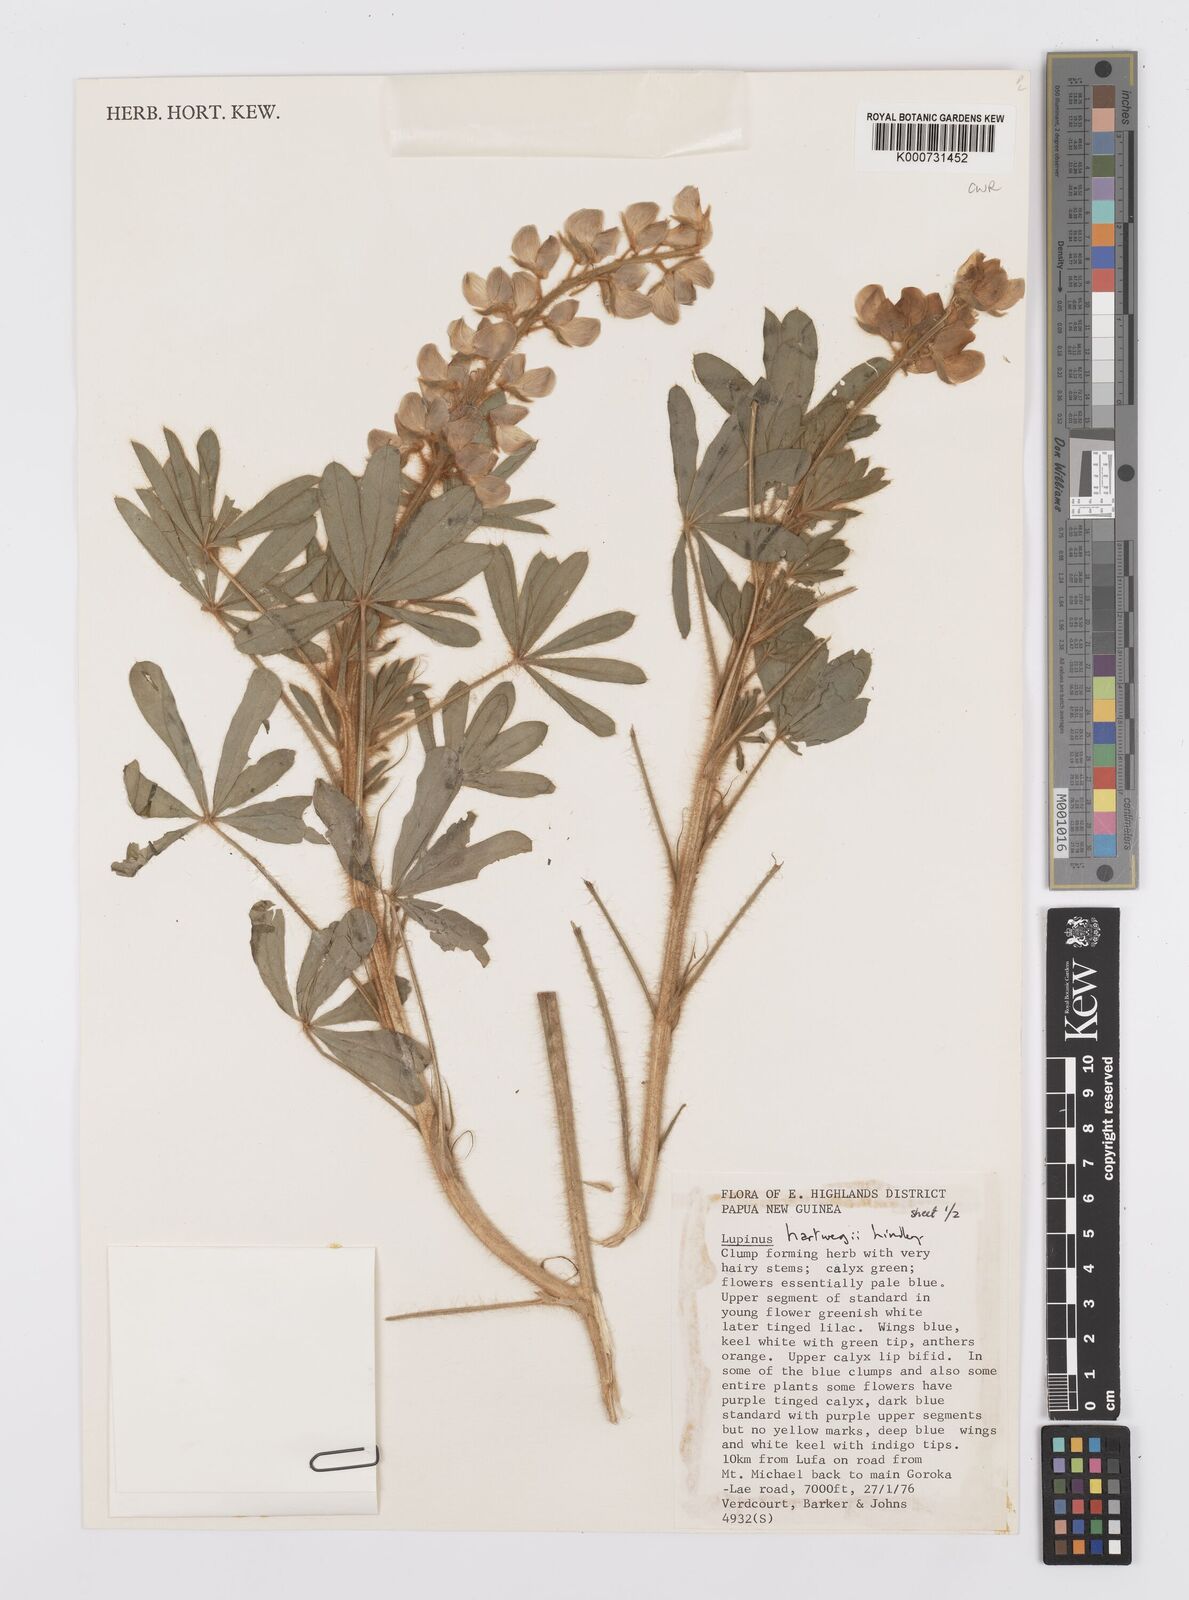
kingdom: Plantae
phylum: Tracheophyta
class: Magnoliopsida
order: Fabales
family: Fabaceae
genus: Lupinus
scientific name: Lupinus ehrenbergii
